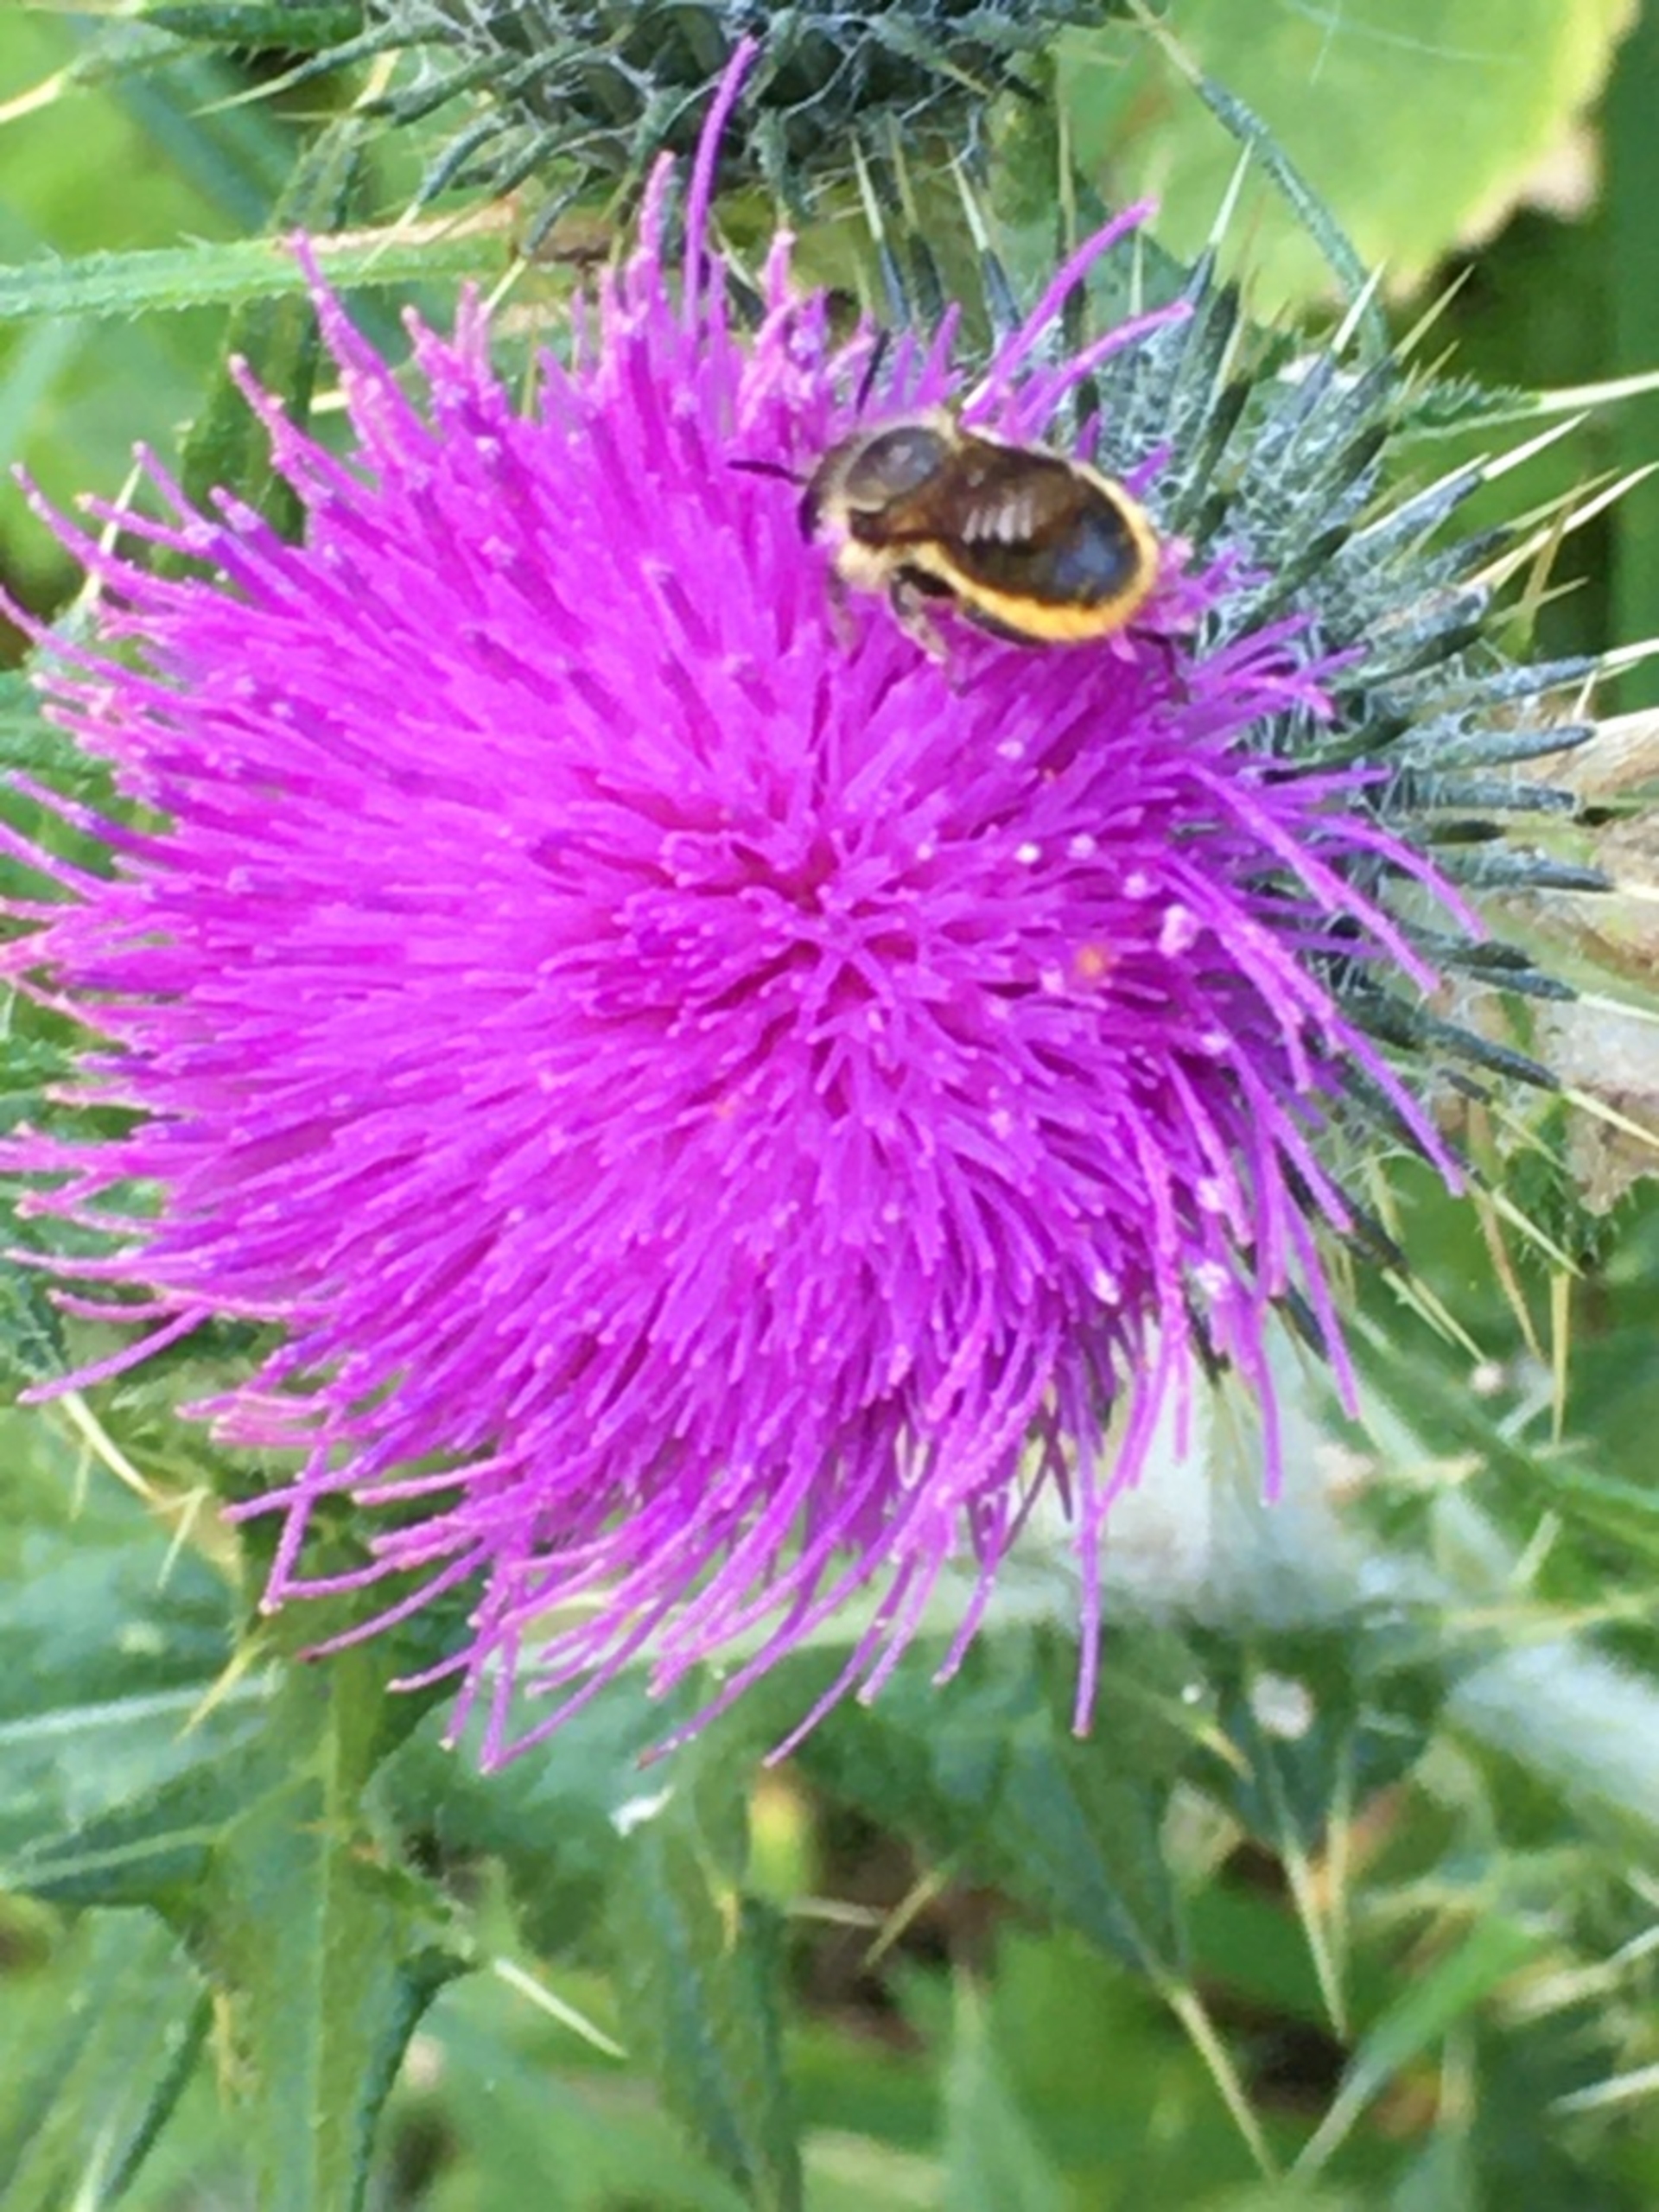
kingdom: Plantae
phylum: Tracheophyta
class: Magnoliopsida
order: Asterales
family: Asteraceae
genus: Cirsium
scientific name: Cirsium vulgare
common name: Horse-tidsel
